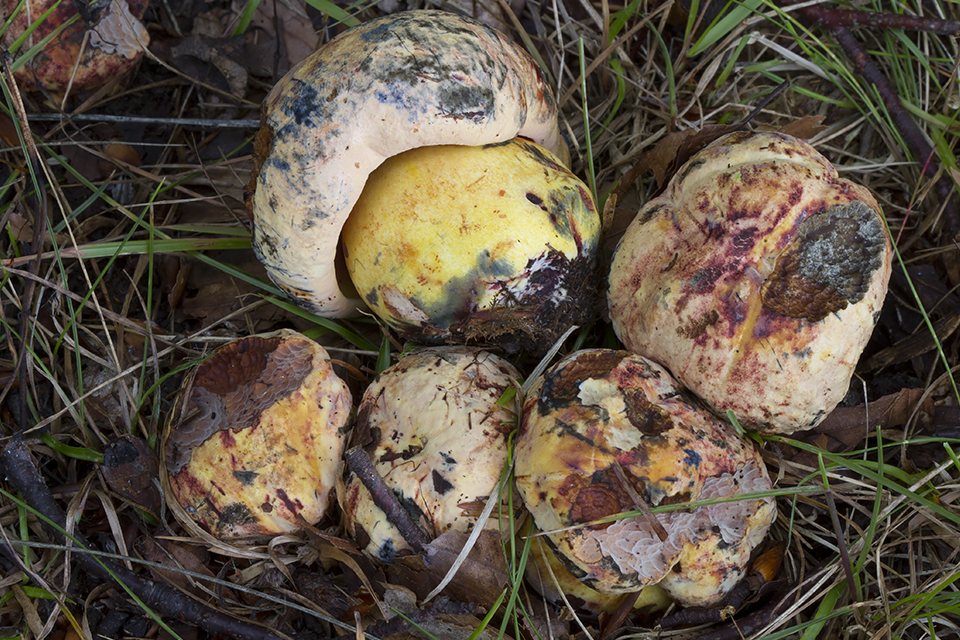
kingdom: Fungi
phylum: Basidiomycota
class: Agaricomycetes
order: Boletales
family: Boletaceae
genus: Imperator
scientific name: Imperator rhodopurpureus
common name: purpur-rørhat
